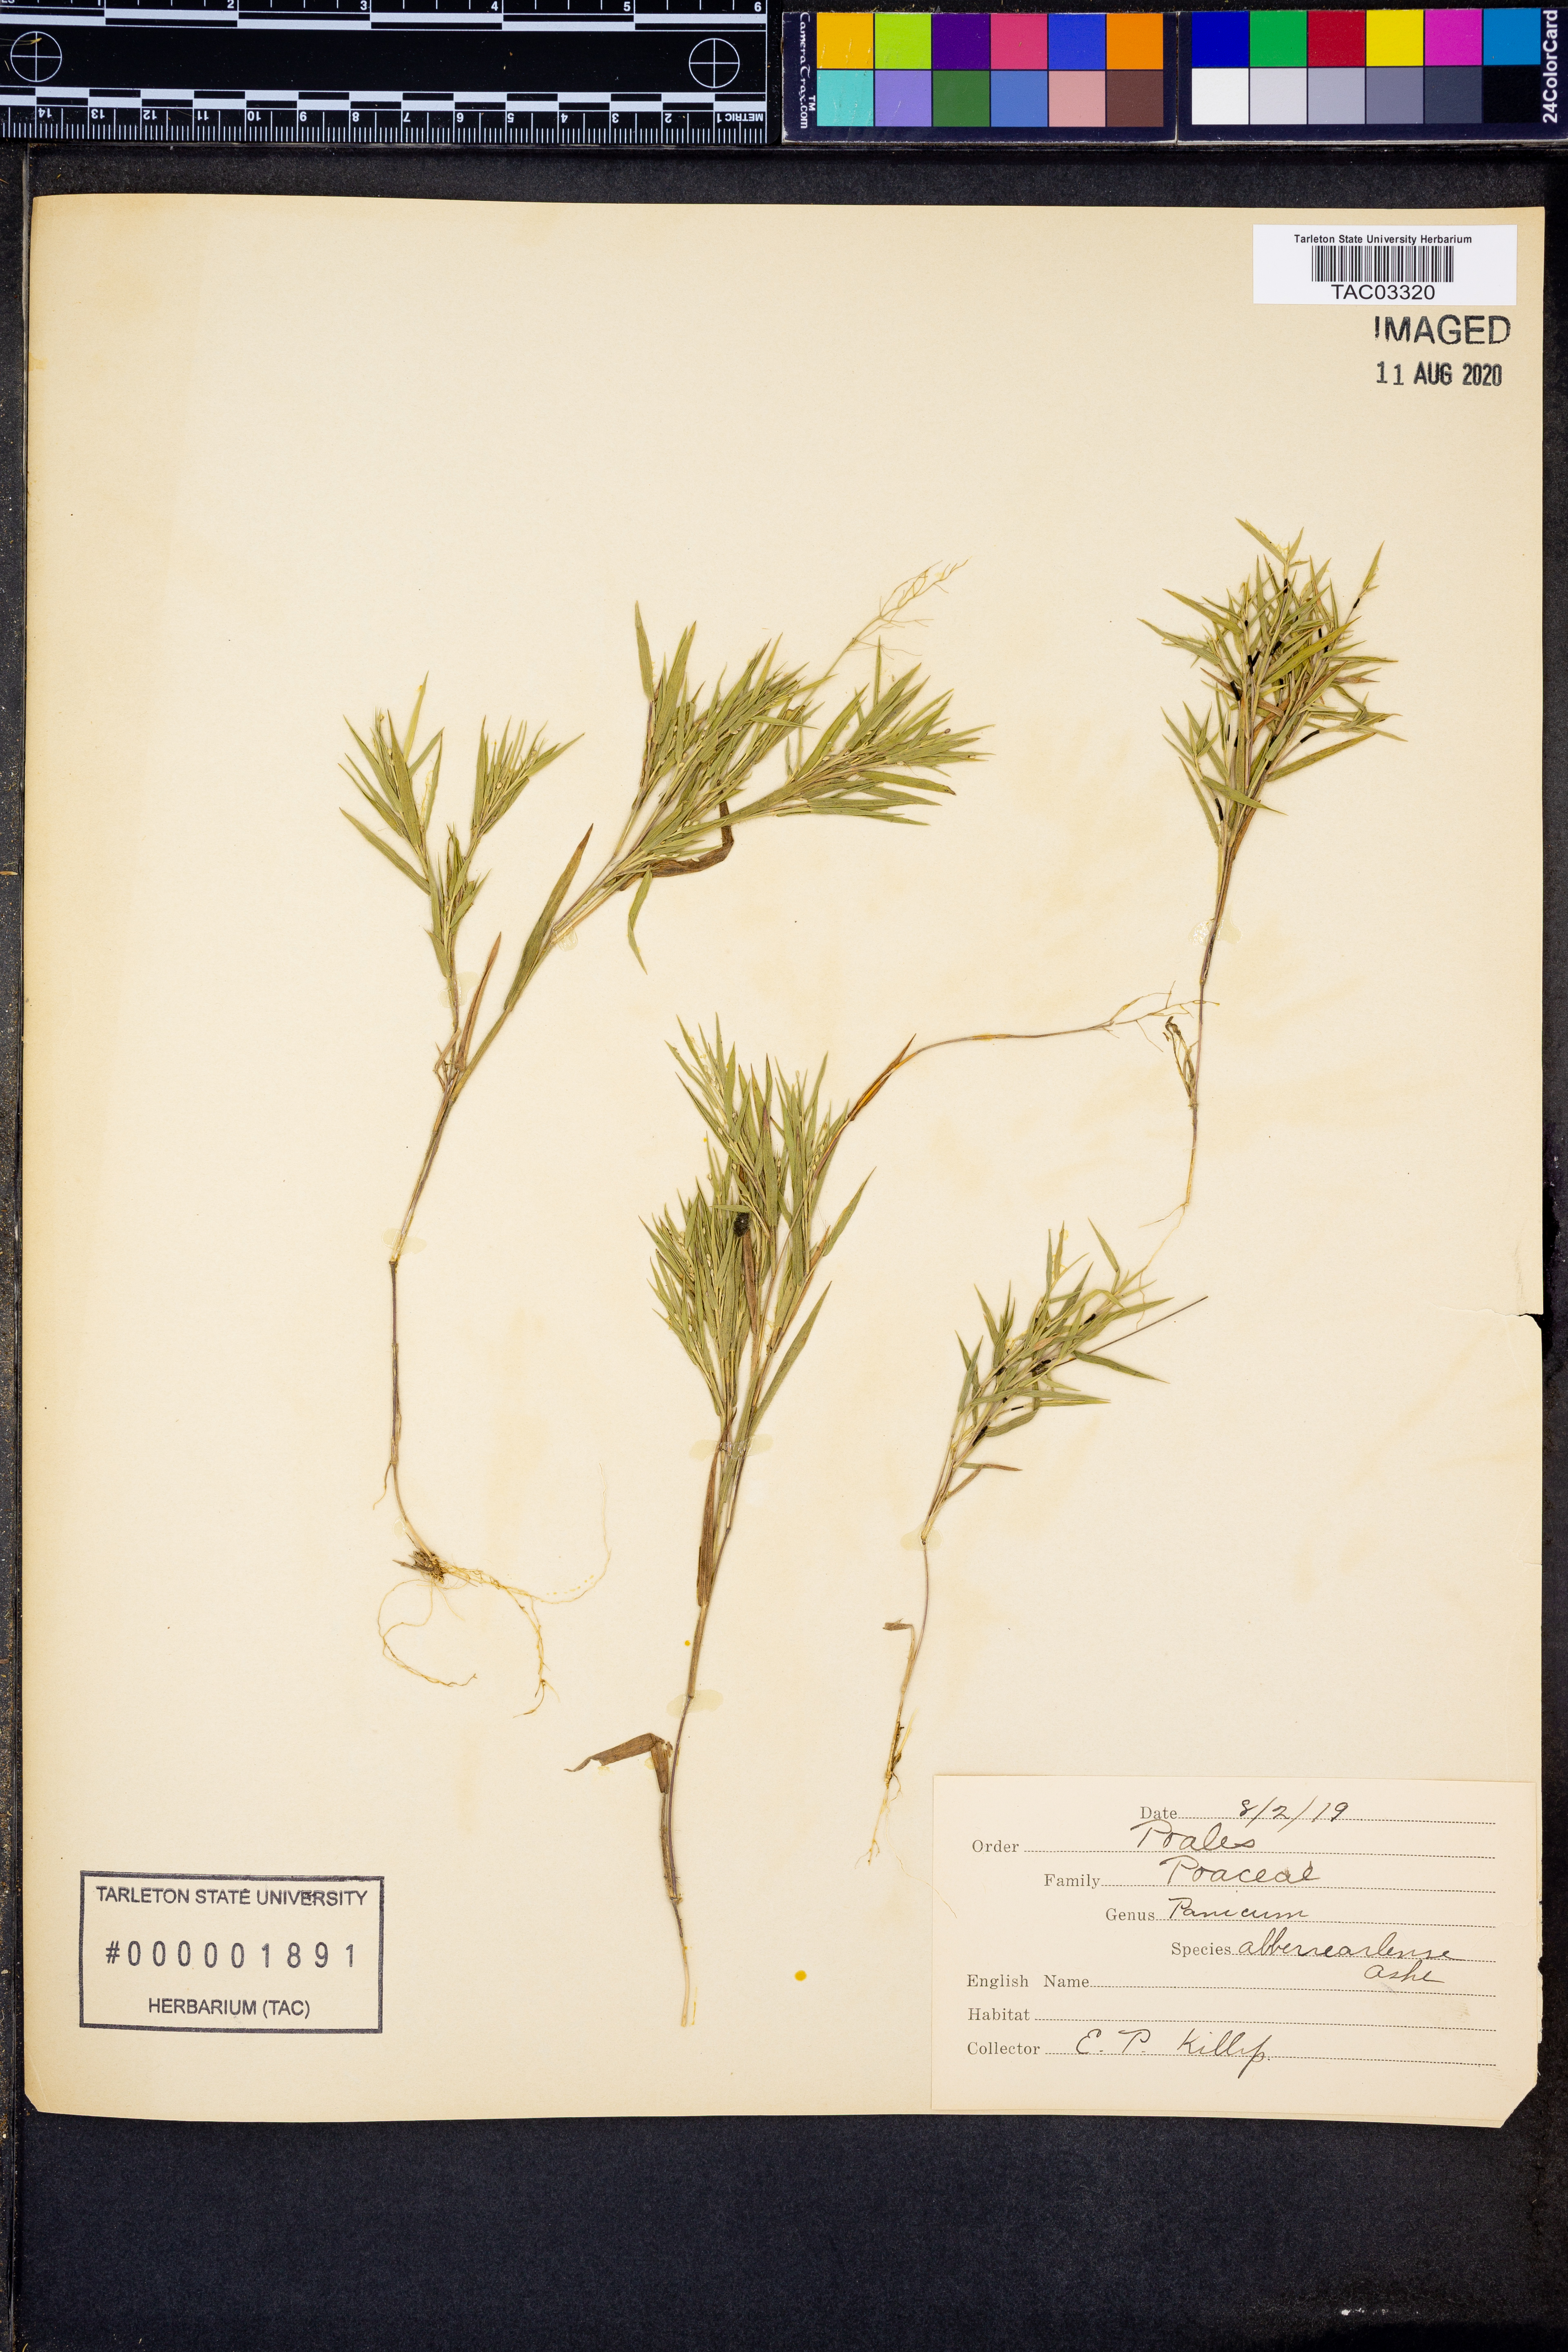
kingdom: Plantae
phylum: Tracheophyta
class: Liliopsida
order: Poales
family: Poaceae
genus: Dichanthelium
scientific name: Dichanthelium meridionale
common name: Mat panicgrass
